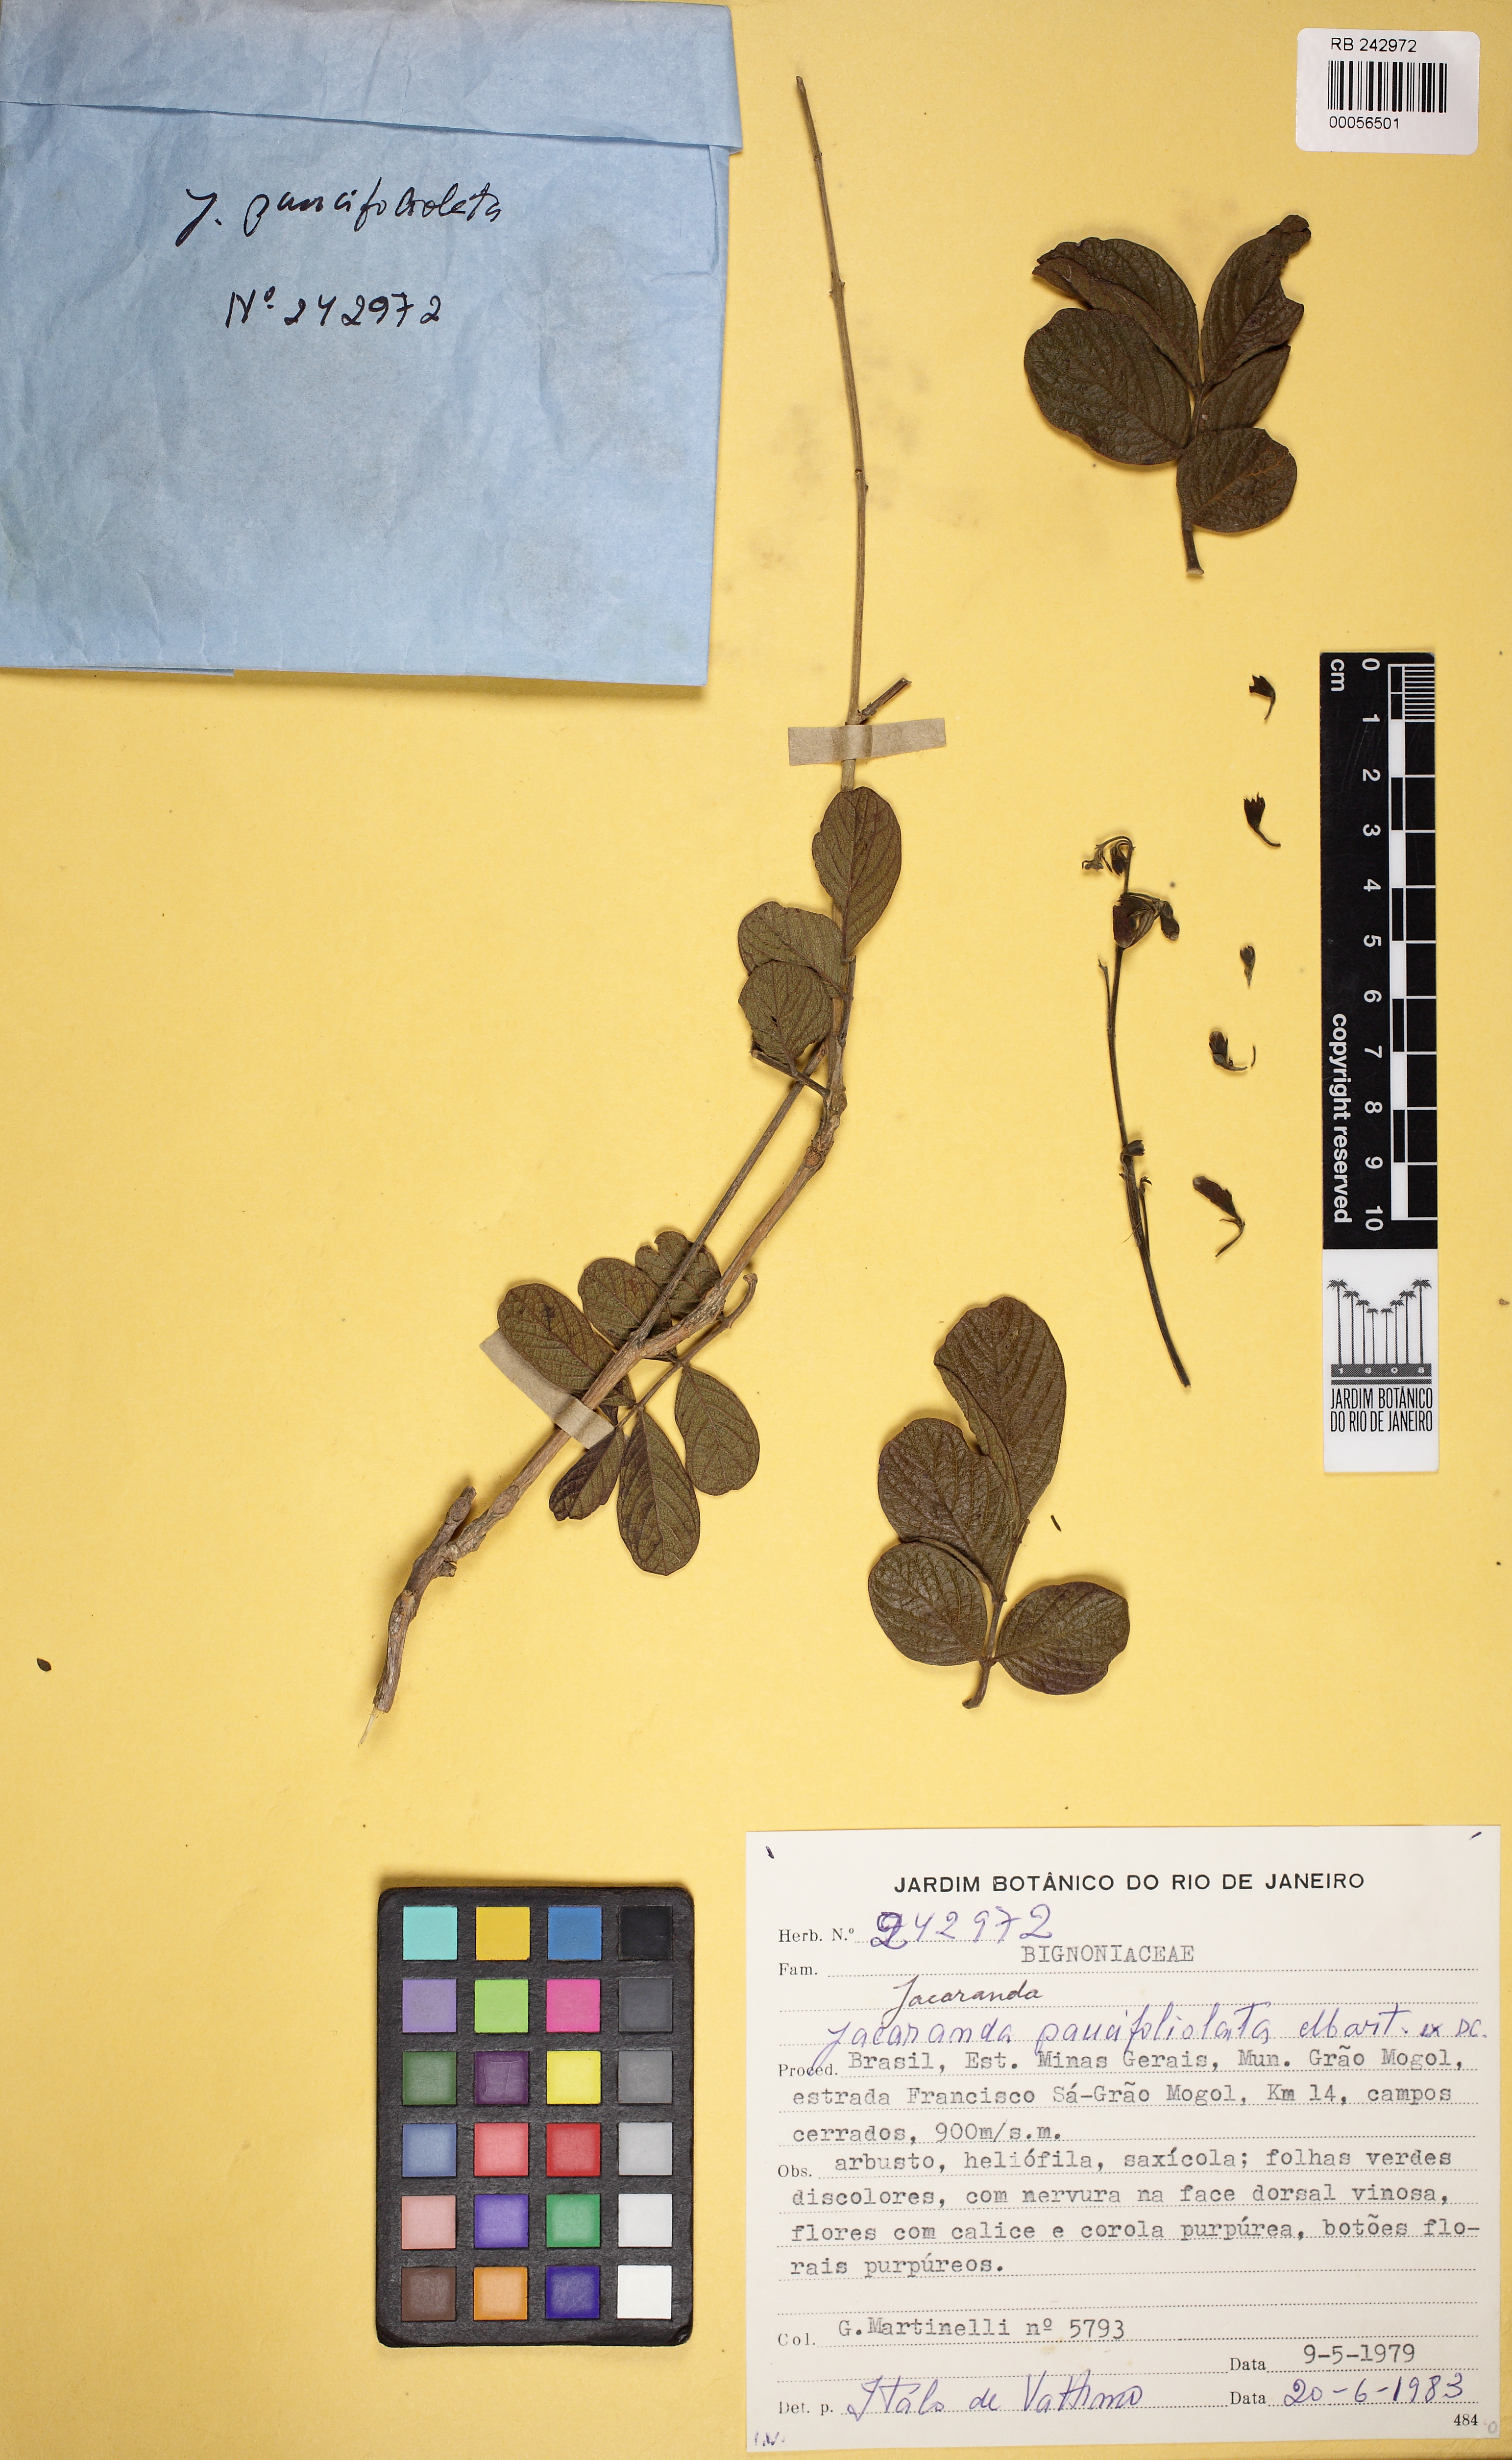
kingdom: Plantae
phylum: Tracheophyta
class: Magnoliopsida
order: Lamiales
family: Bignoniaceae
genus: Jacaranda
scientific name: Jacaranda paucifoliata
